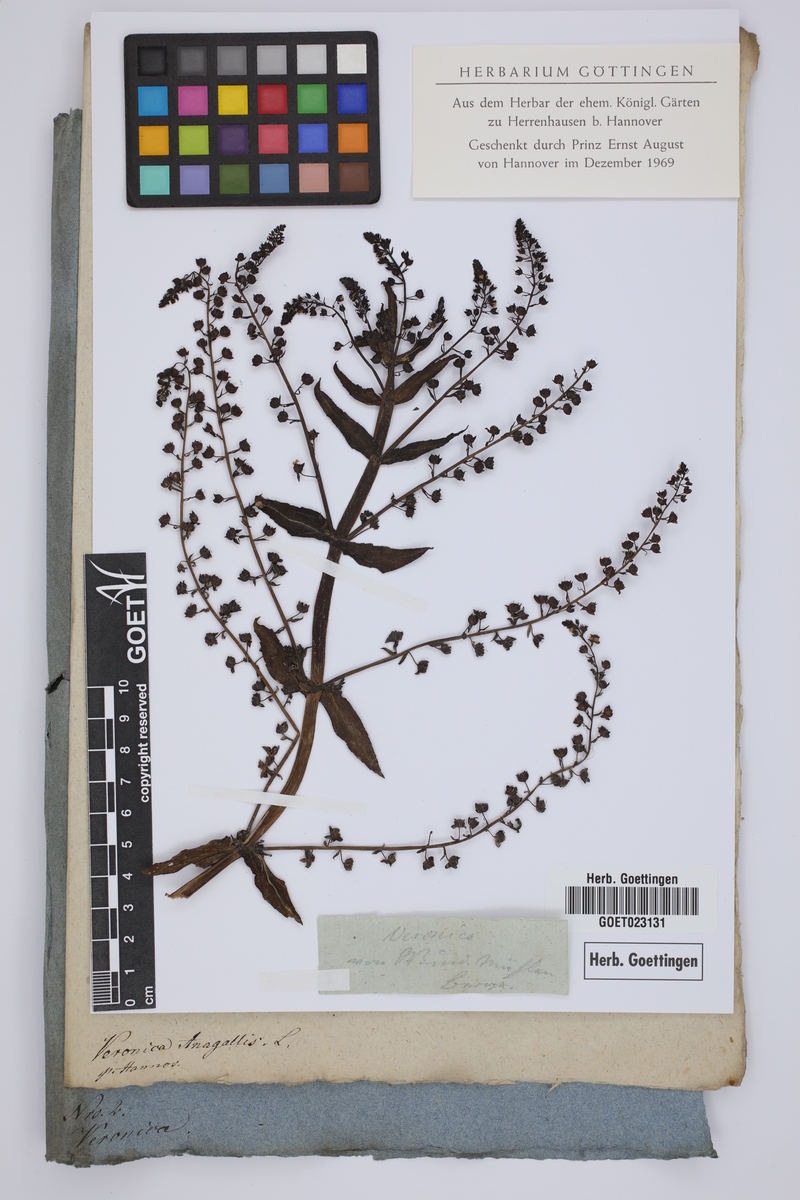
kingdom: Plantae
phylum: Tracheophyta
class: Magnoliopsida
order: Lamiales
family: Plantaginaceae
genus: Veronica
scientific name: Veronica anagallis-aquatica
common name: Water speedwell
